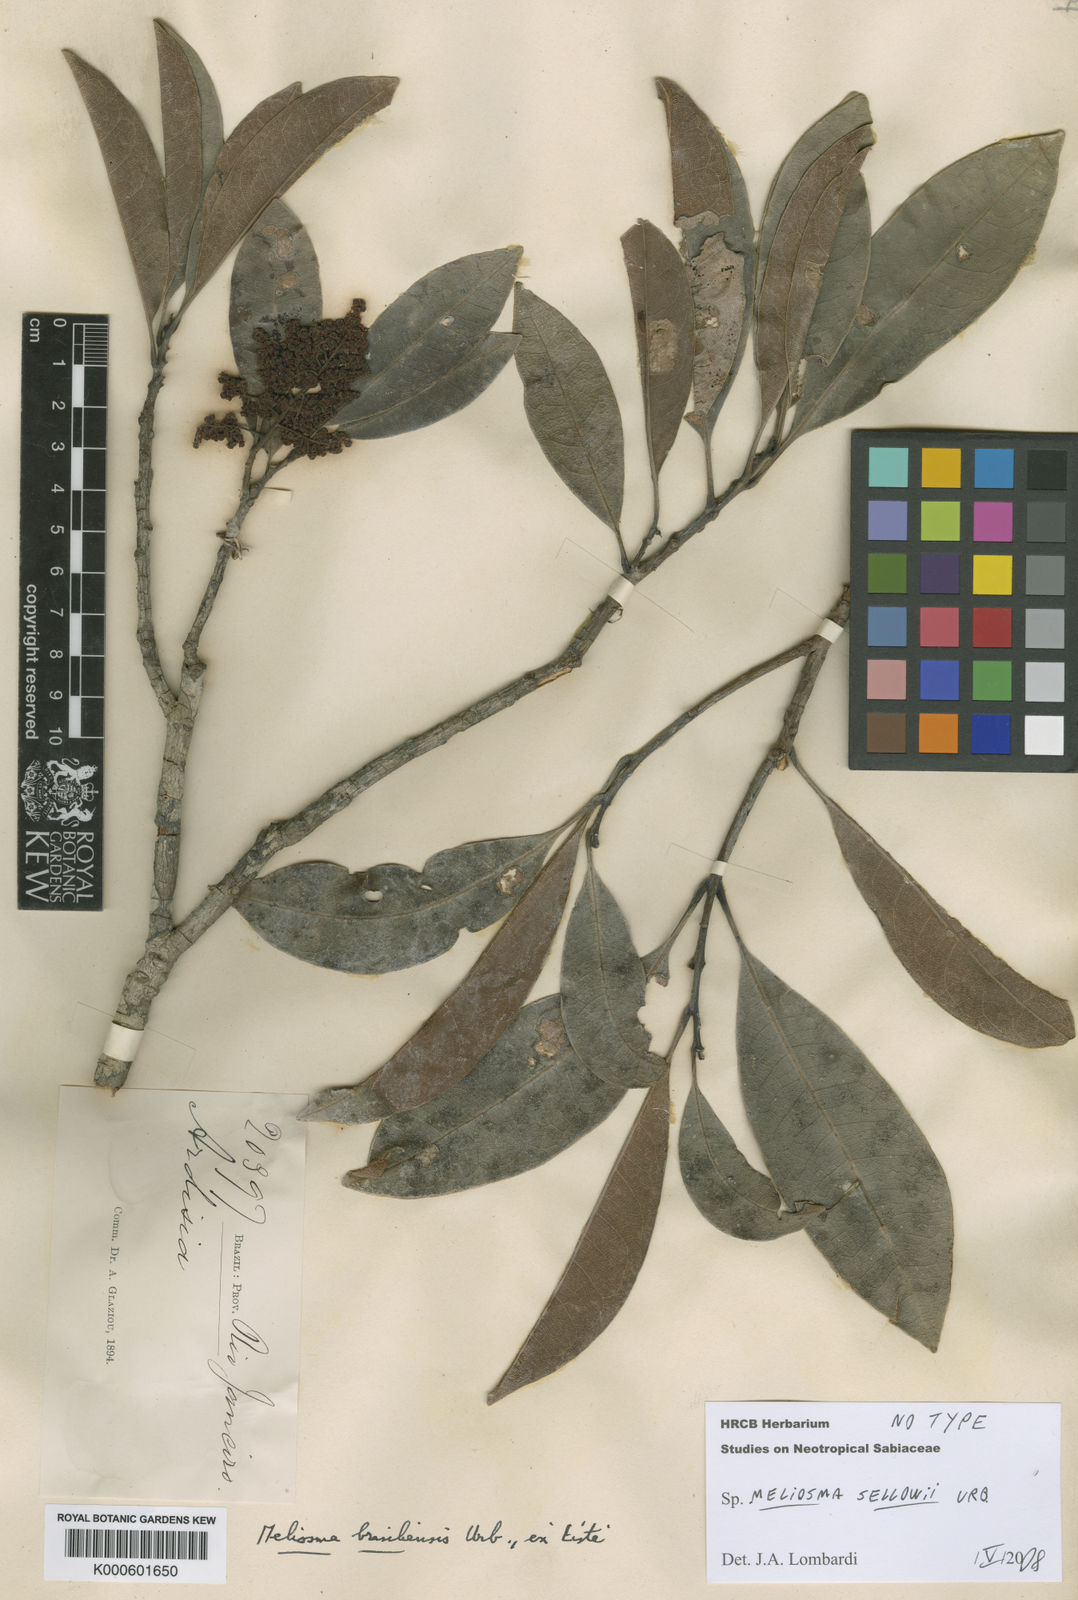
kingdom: Plantae
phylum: Tracheophyta
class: Magnoliopsida
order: Proteales
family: Sabiaceae
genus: Meliosma
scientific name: Meliosma sellowii
